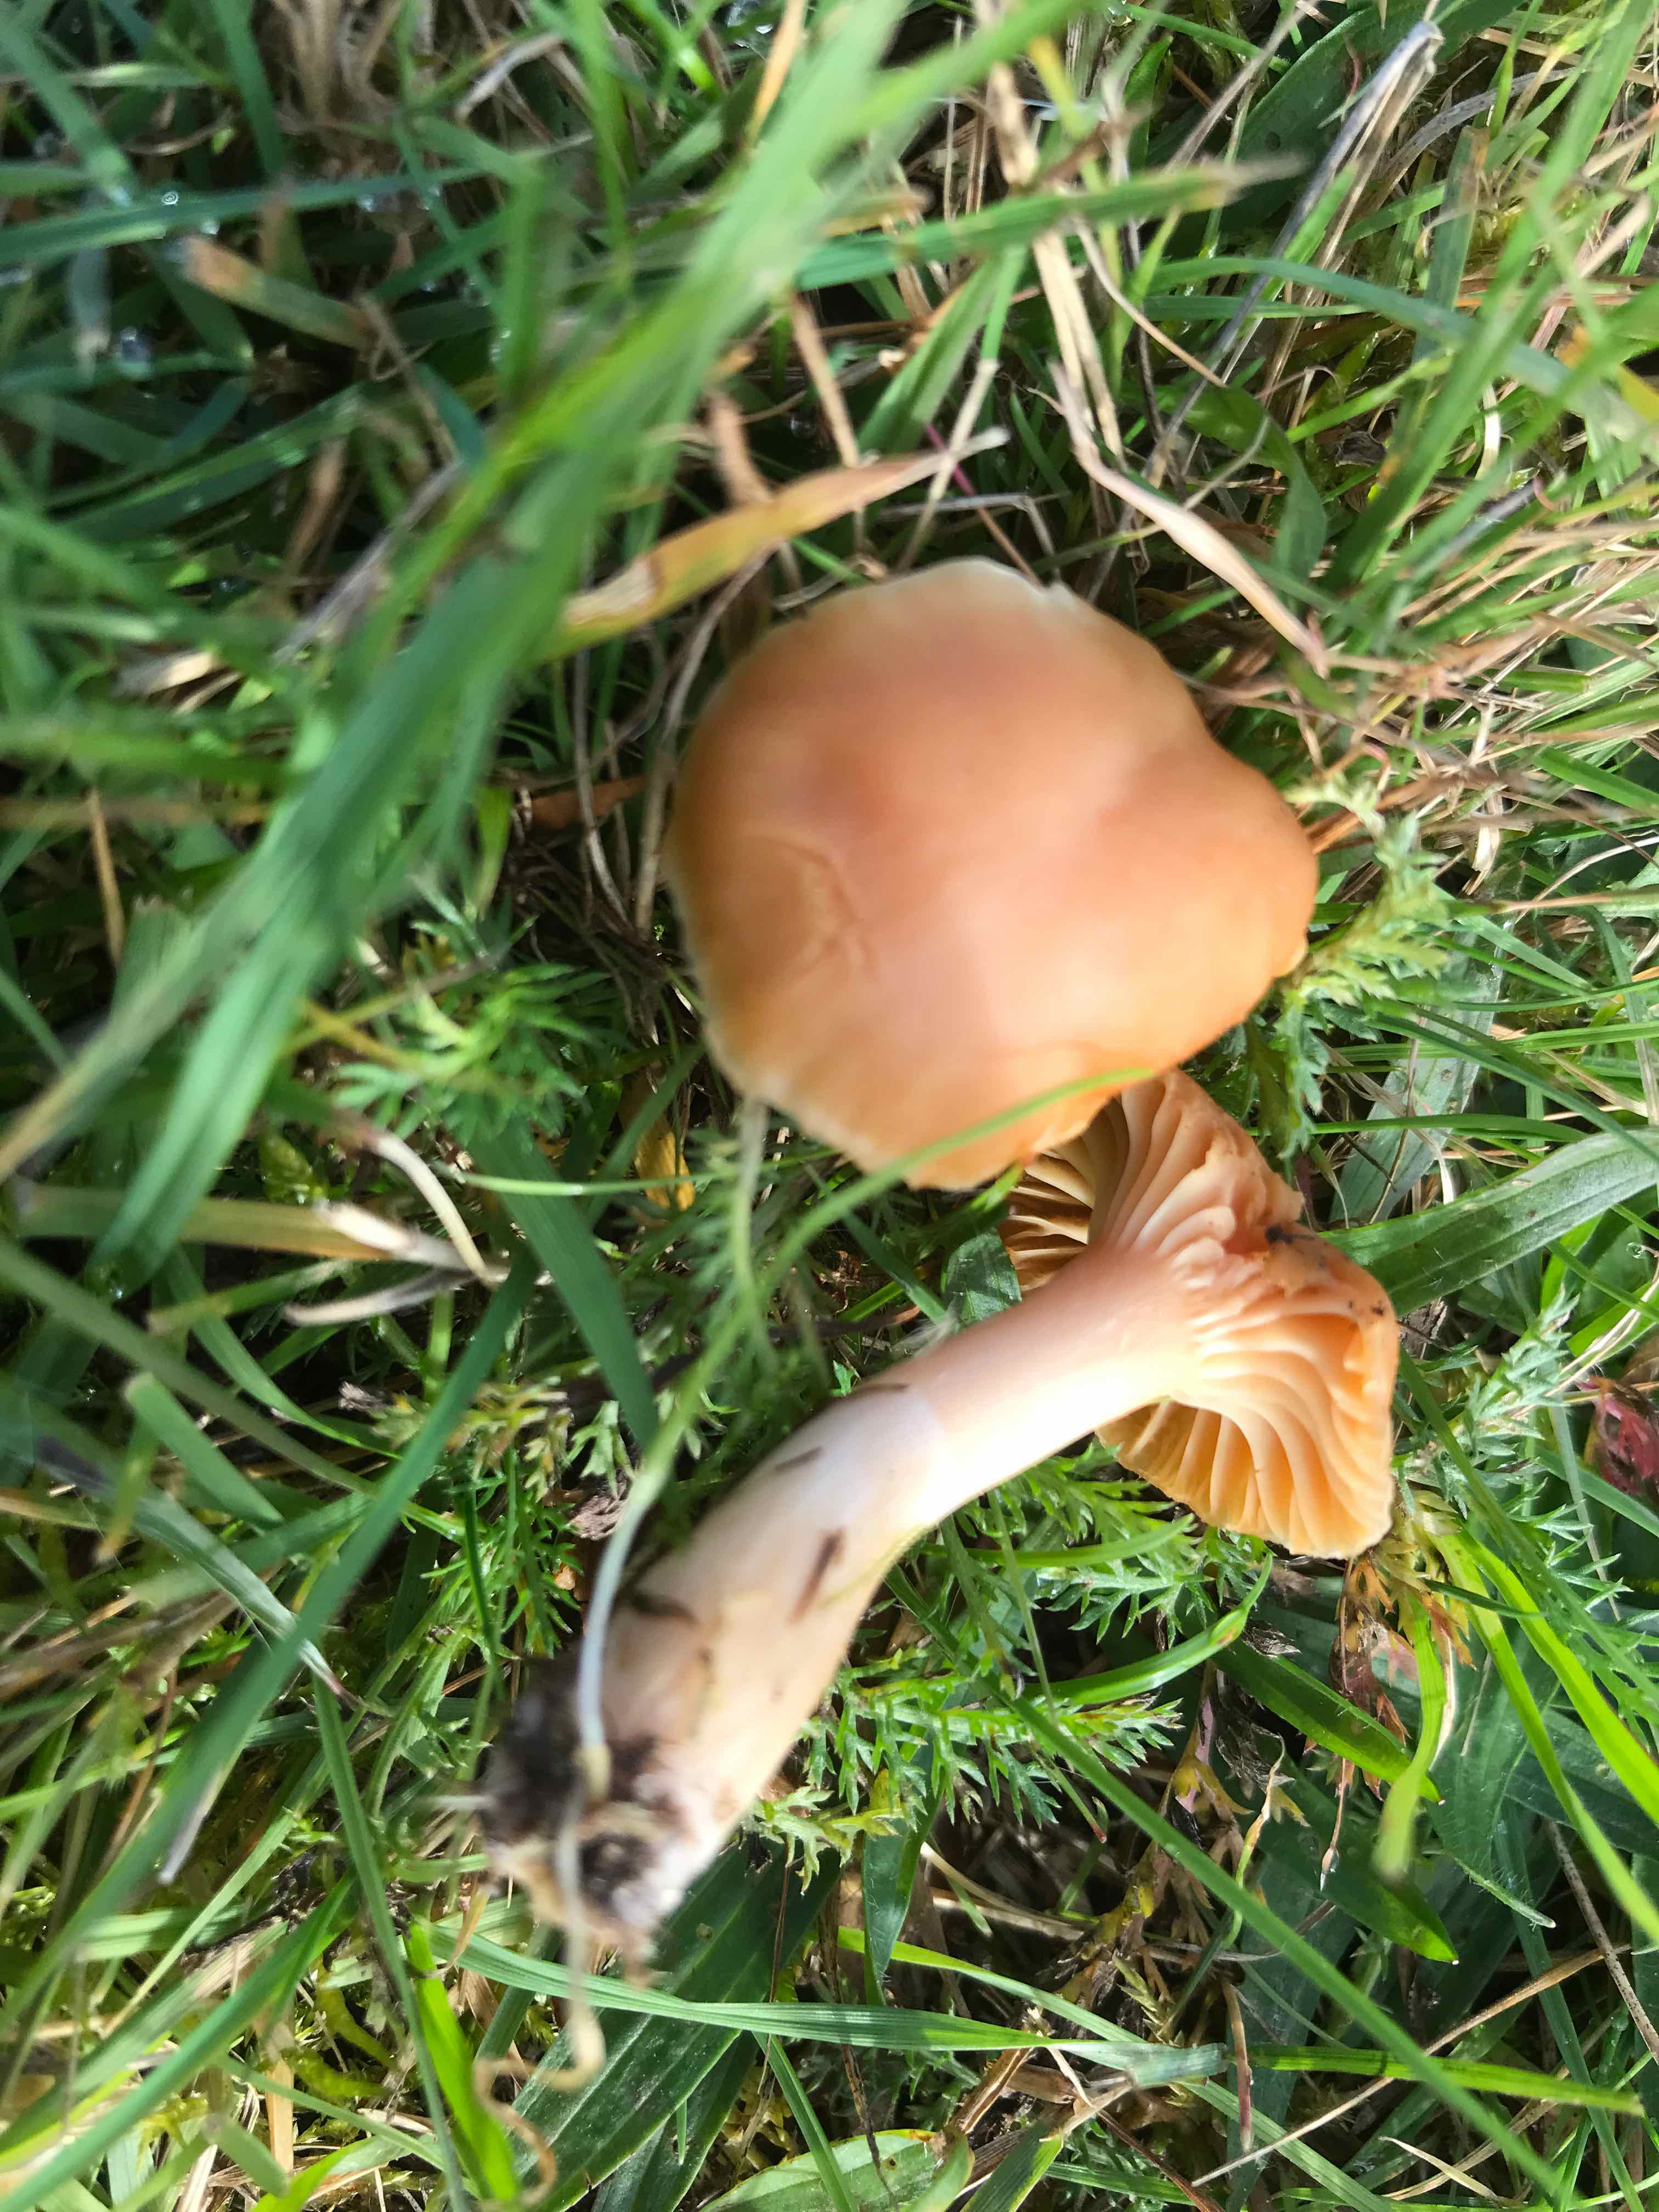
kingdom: Fungi
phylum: Basidiomycota
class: Agaricomycetes
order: Agaricales
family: Hygrophoraceae
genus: Cuphophyllus
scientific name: Cuphophyllus pratensis
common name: eng-vokshat
